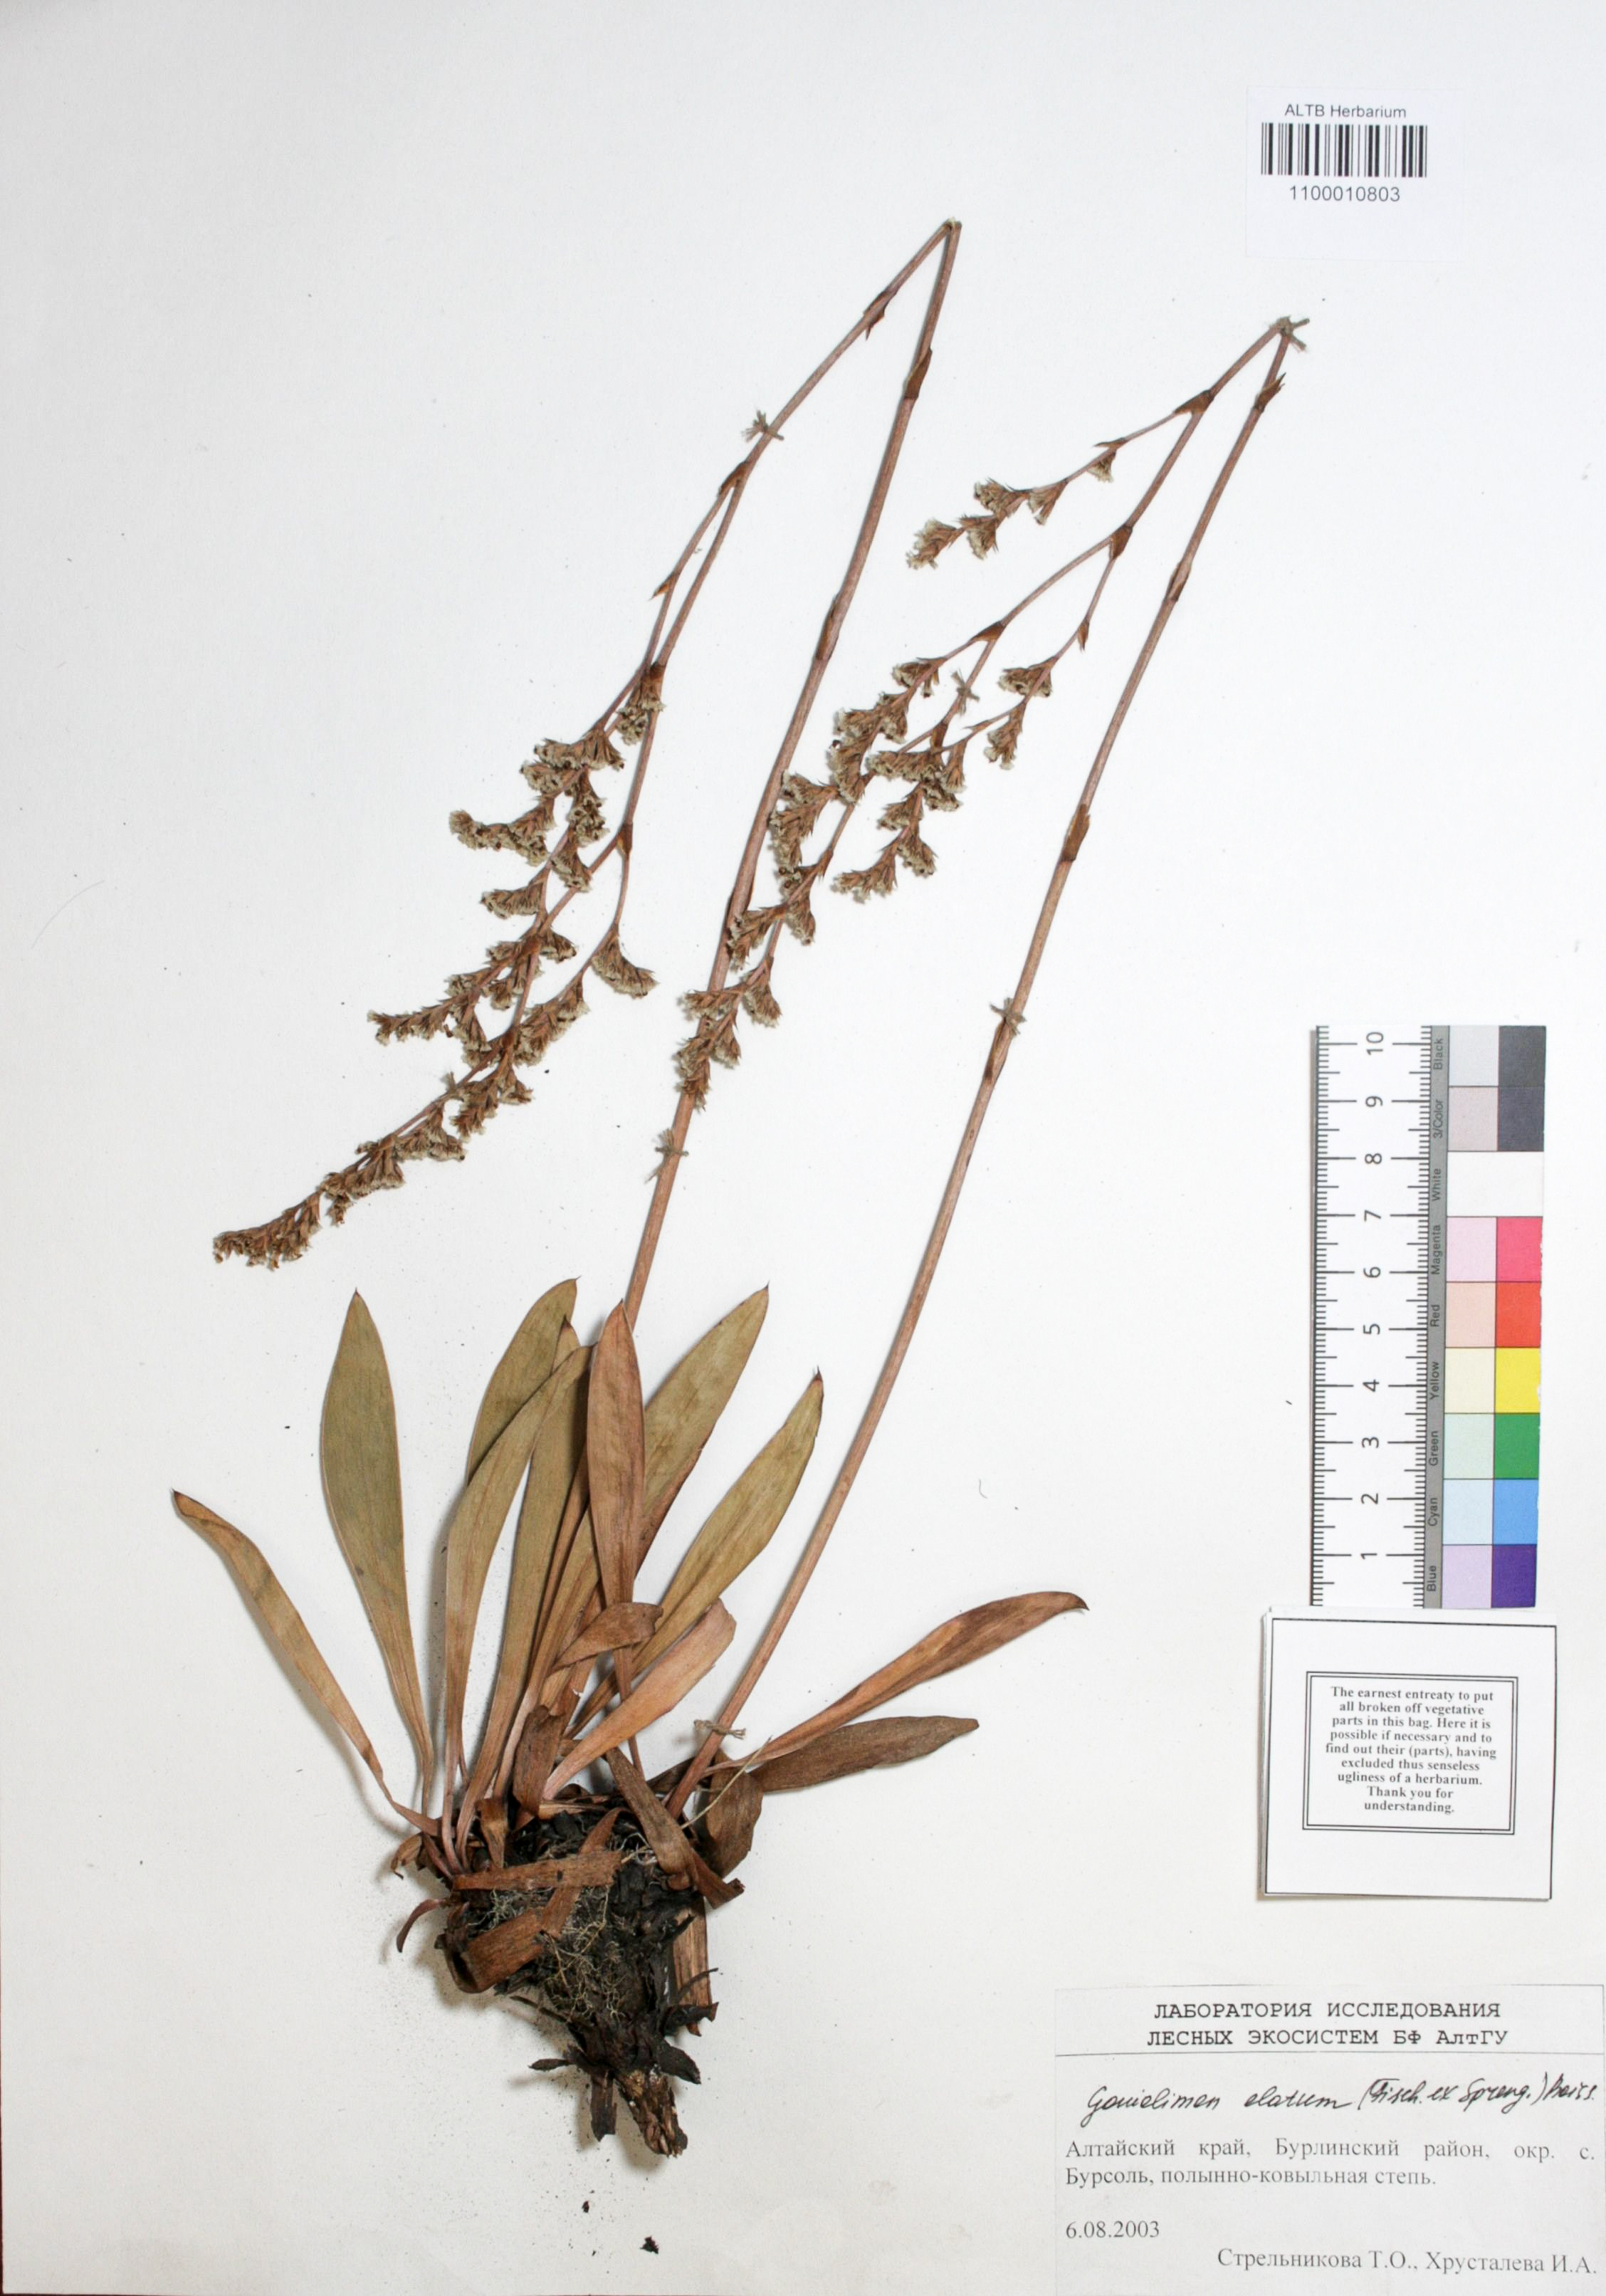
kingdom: Plantae
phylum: Tracheophyta
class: Magnoliopsida
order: Caryophyllales
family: Plumbaginaceae
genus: Goniolimon
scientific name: Goniolimon elatum
